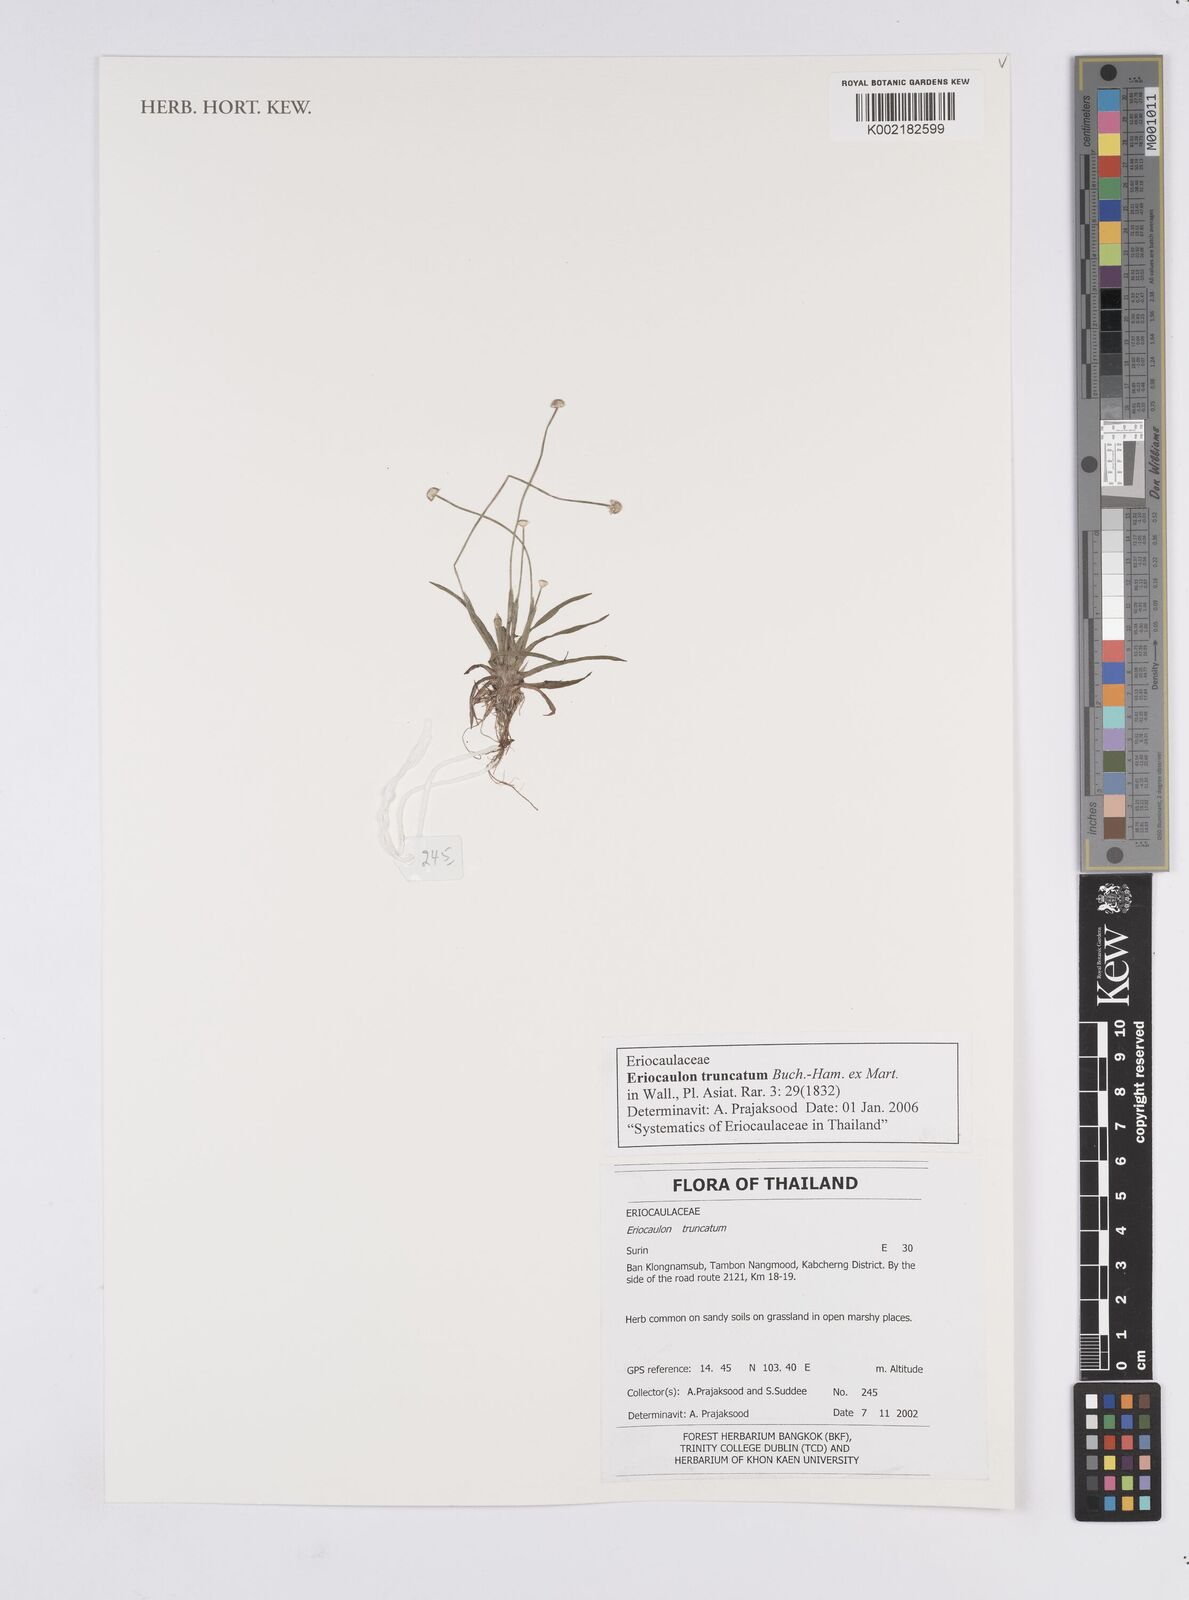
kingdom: Plantae
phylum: Tracheophyta
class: Liliopsida
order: Poales
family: Eriocaulaceae
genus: Eriocaulon
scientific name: Eriocaulon truncatum
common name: Short pipe-wort
